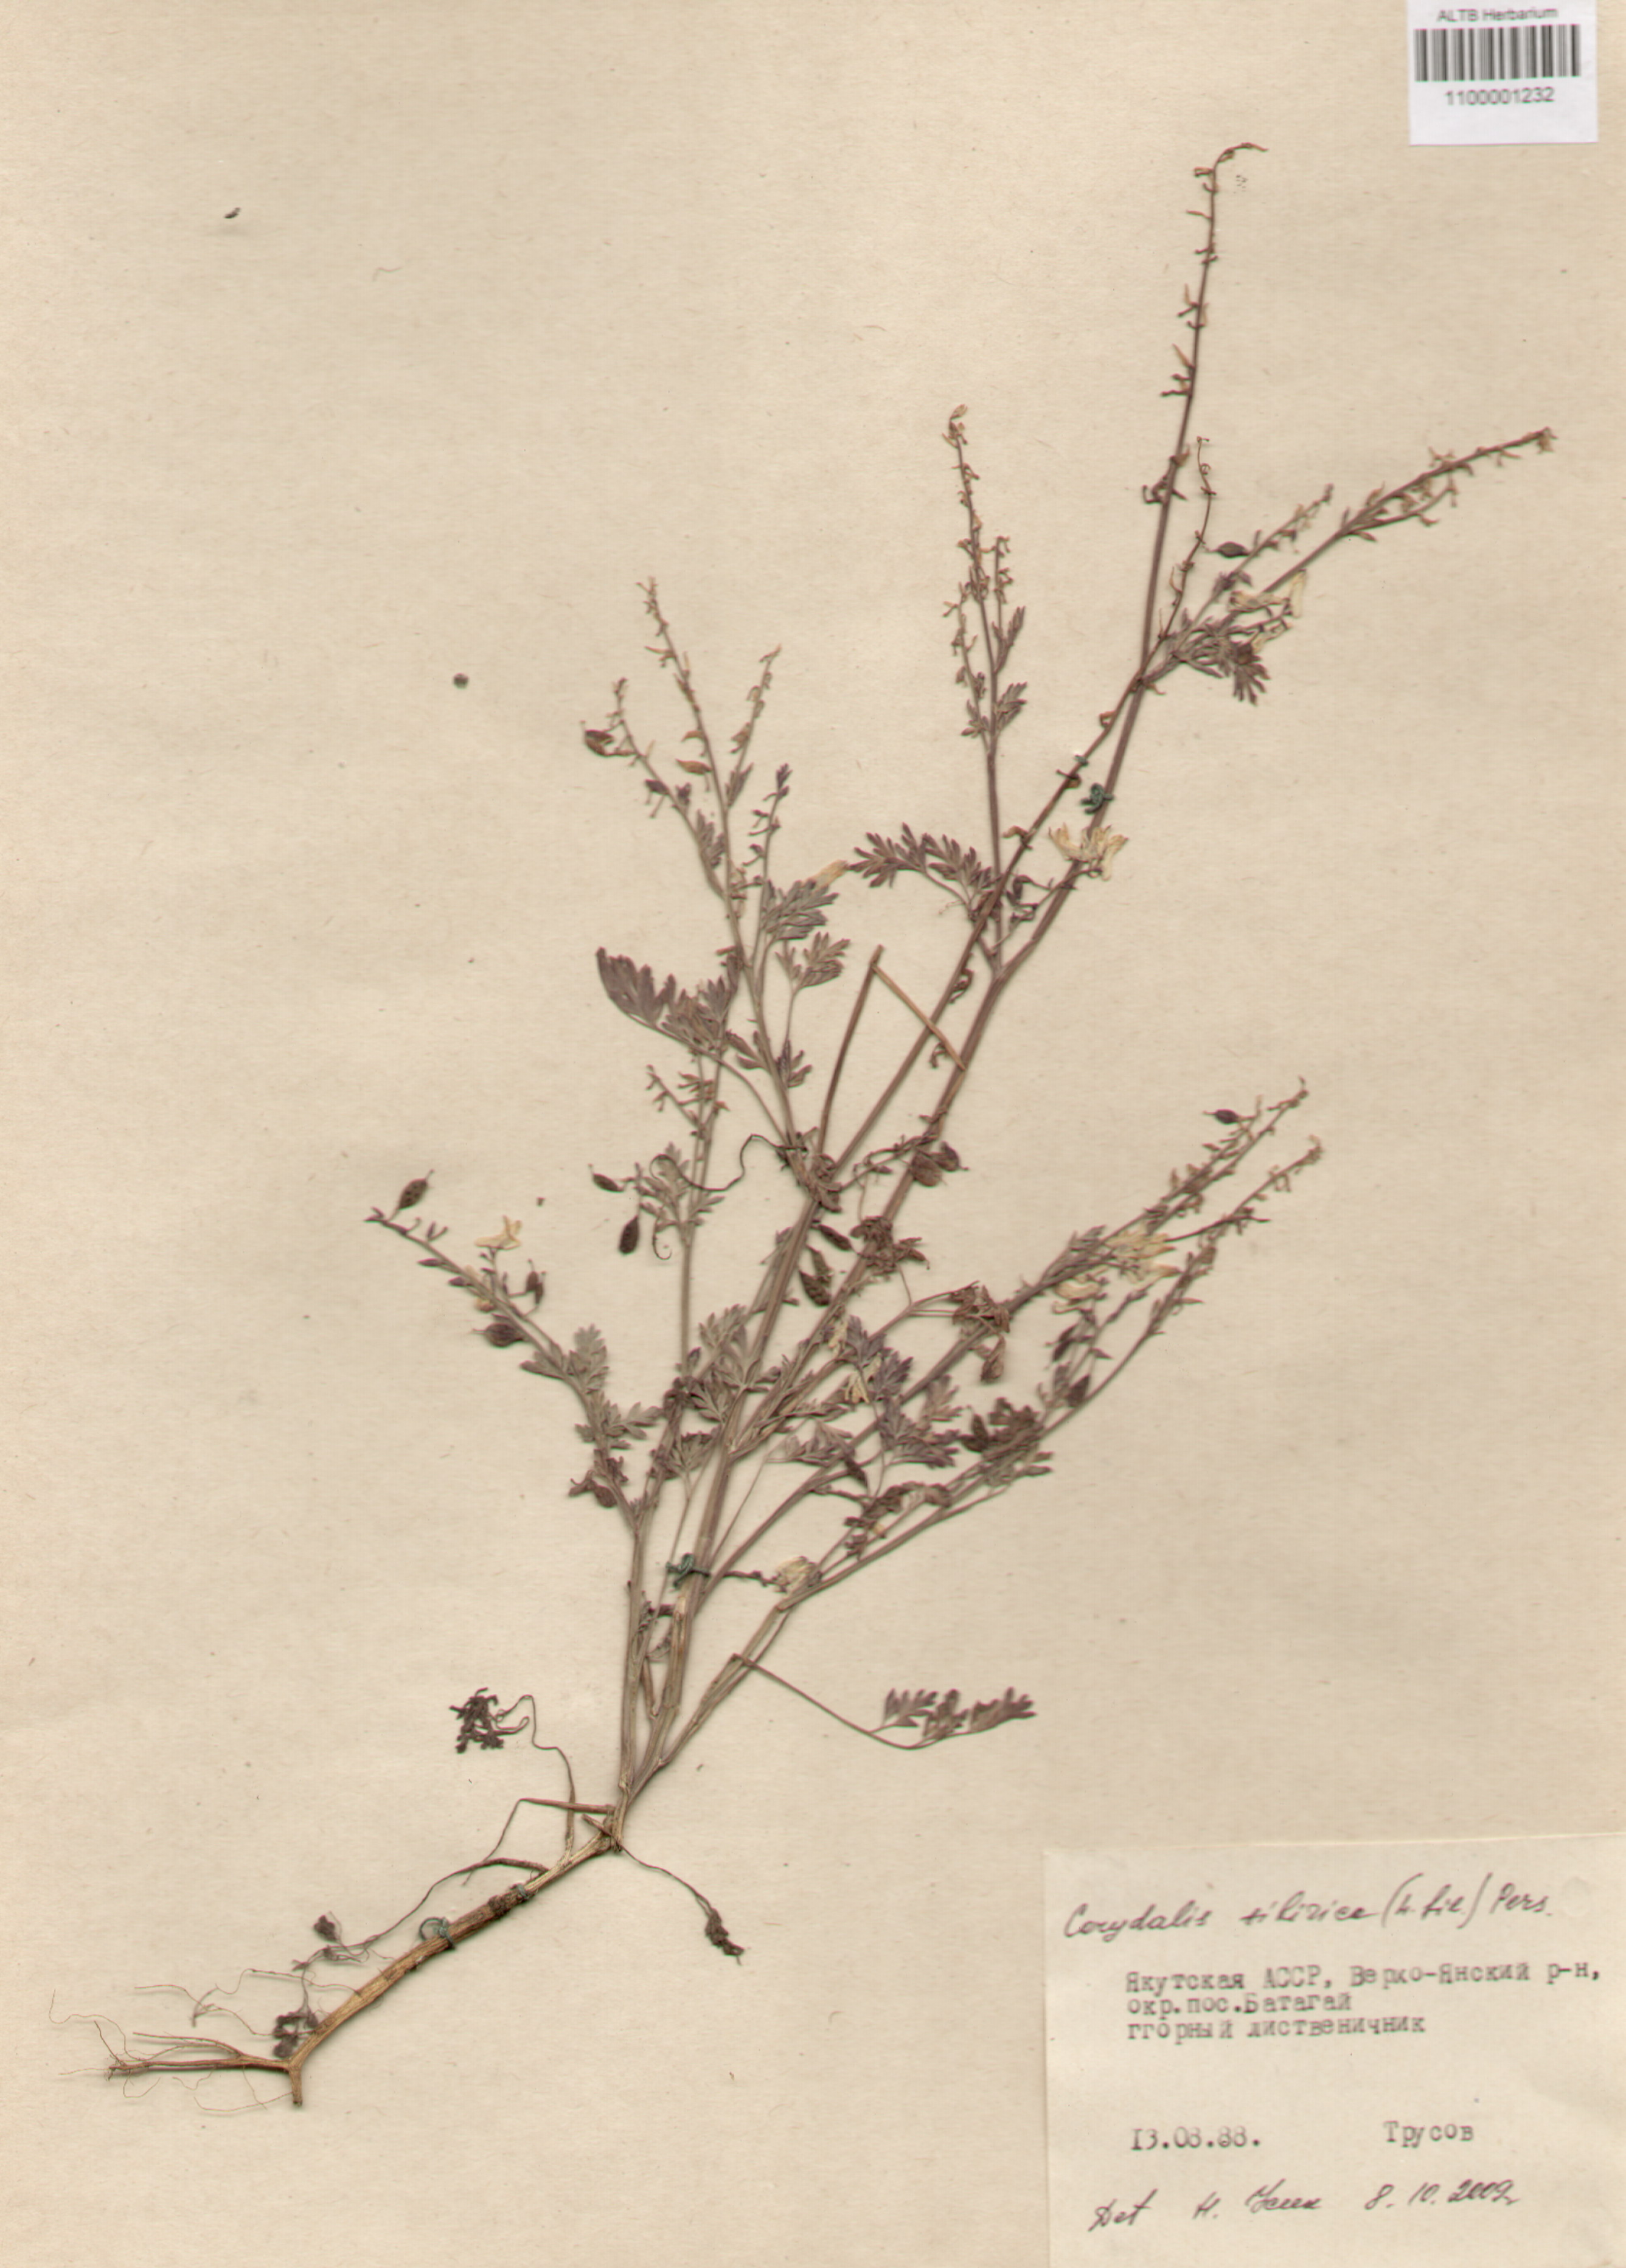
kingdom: Plantae
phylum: Tracheophyta
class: Magnoliopsida
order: Ranunculales
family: Papaveraceae
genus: Corydalis
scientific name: Corydalis sibirica
